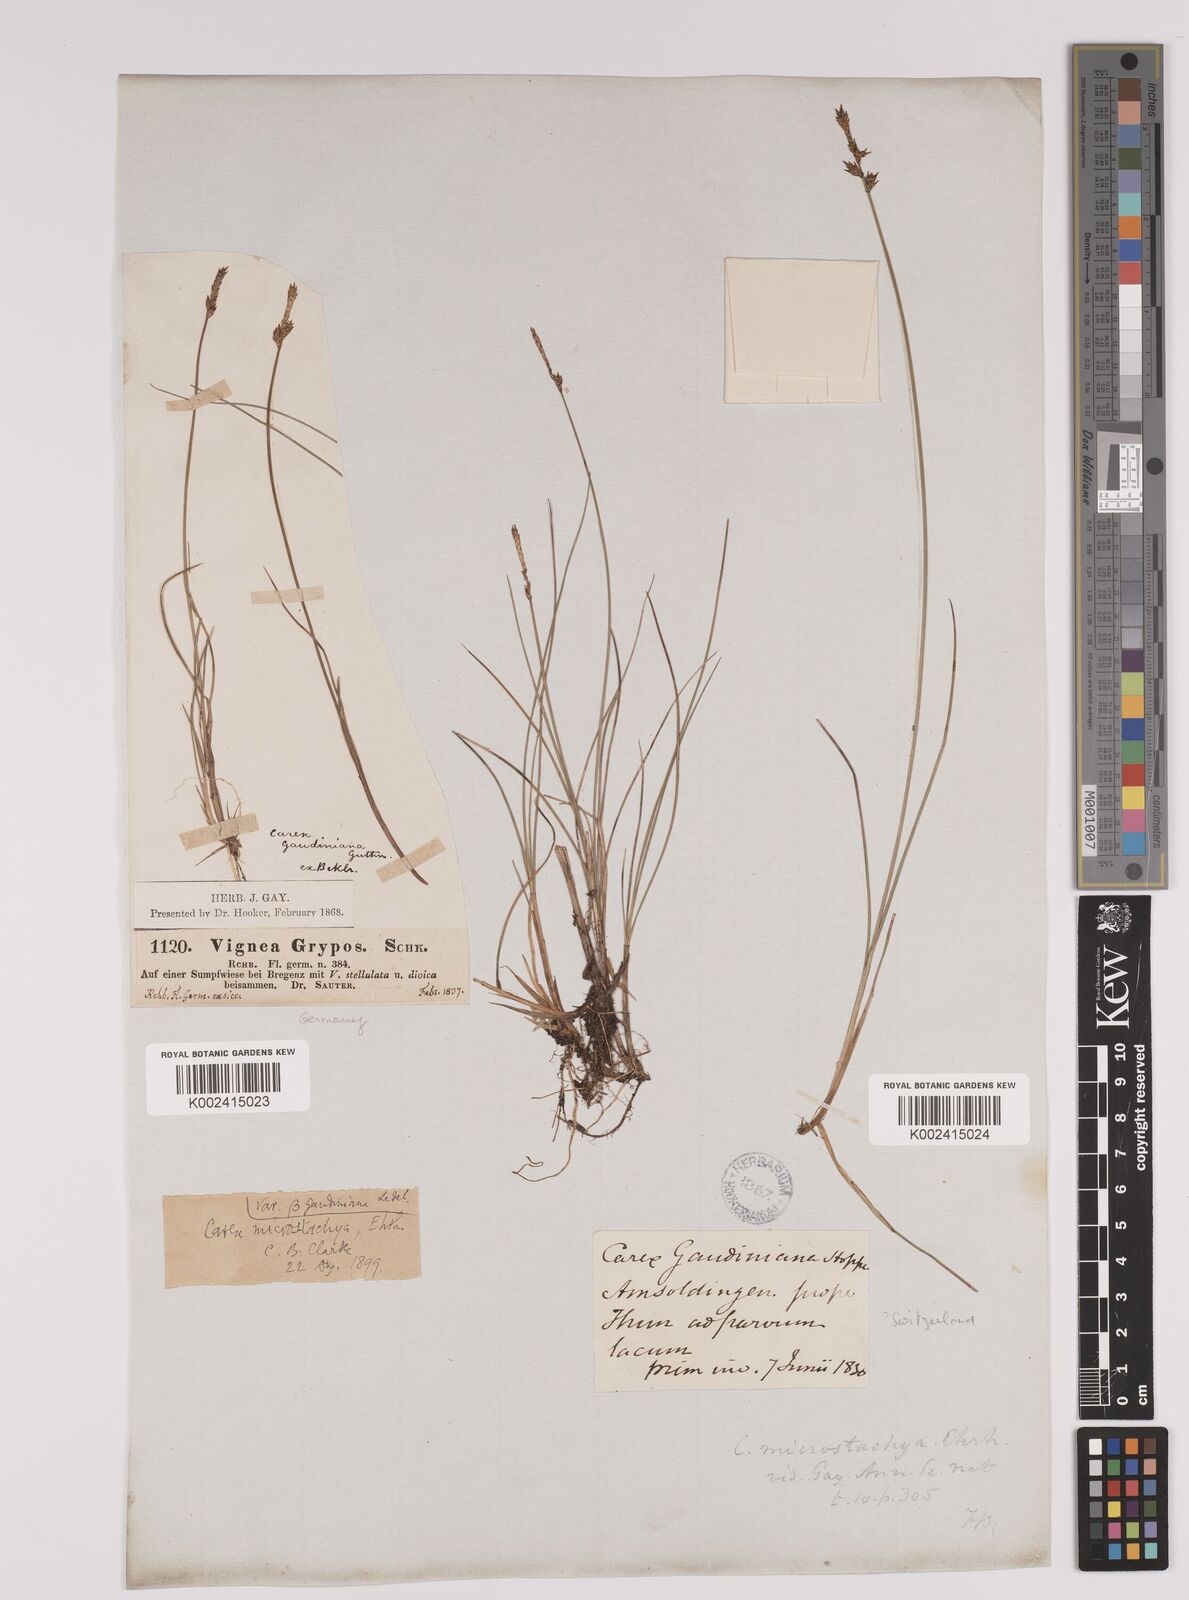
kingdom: Plantae
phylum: Tracheophyta
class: Liliopsida
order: Poales
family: Cyperaceae
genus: Carex
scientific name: Carex dioica
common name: Dioecious sedge
